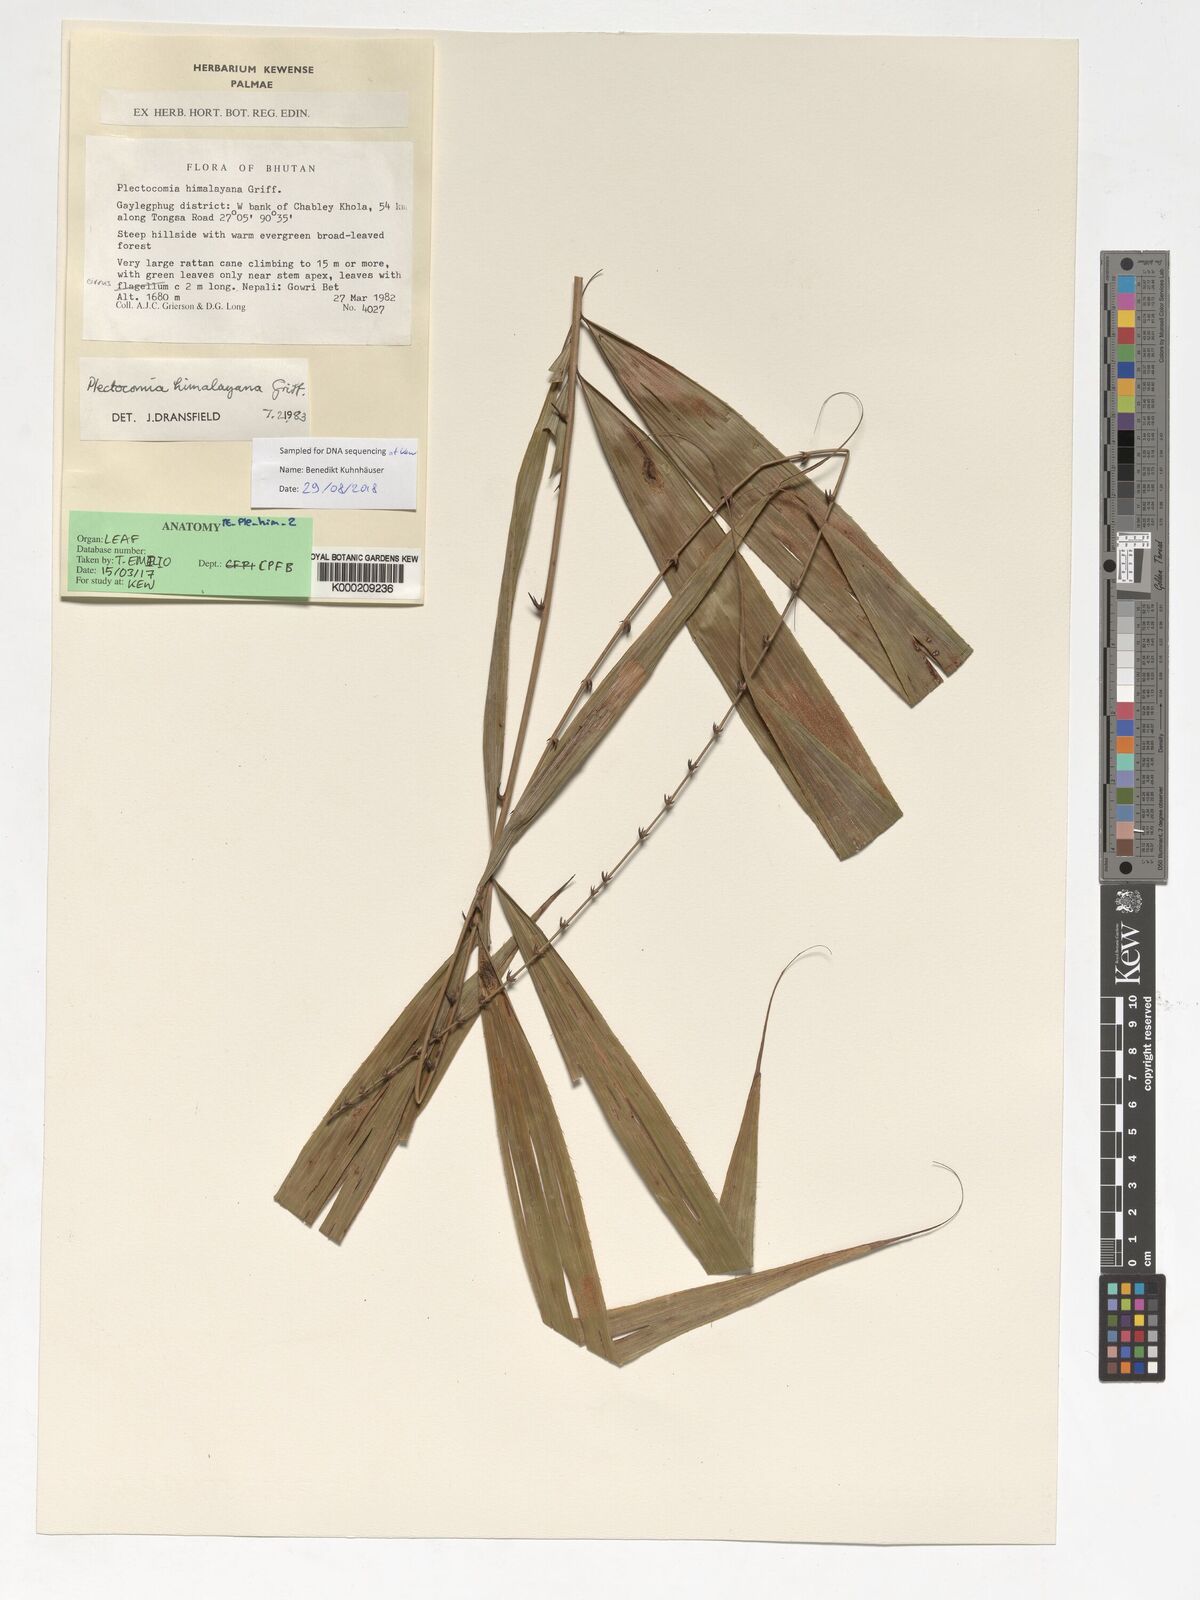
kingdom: Plantae
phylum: Tracheophyta
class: Liliopsida
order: Arecales
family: Arecaceae
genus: Plectocomia
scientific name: Plectocomia himalayana
